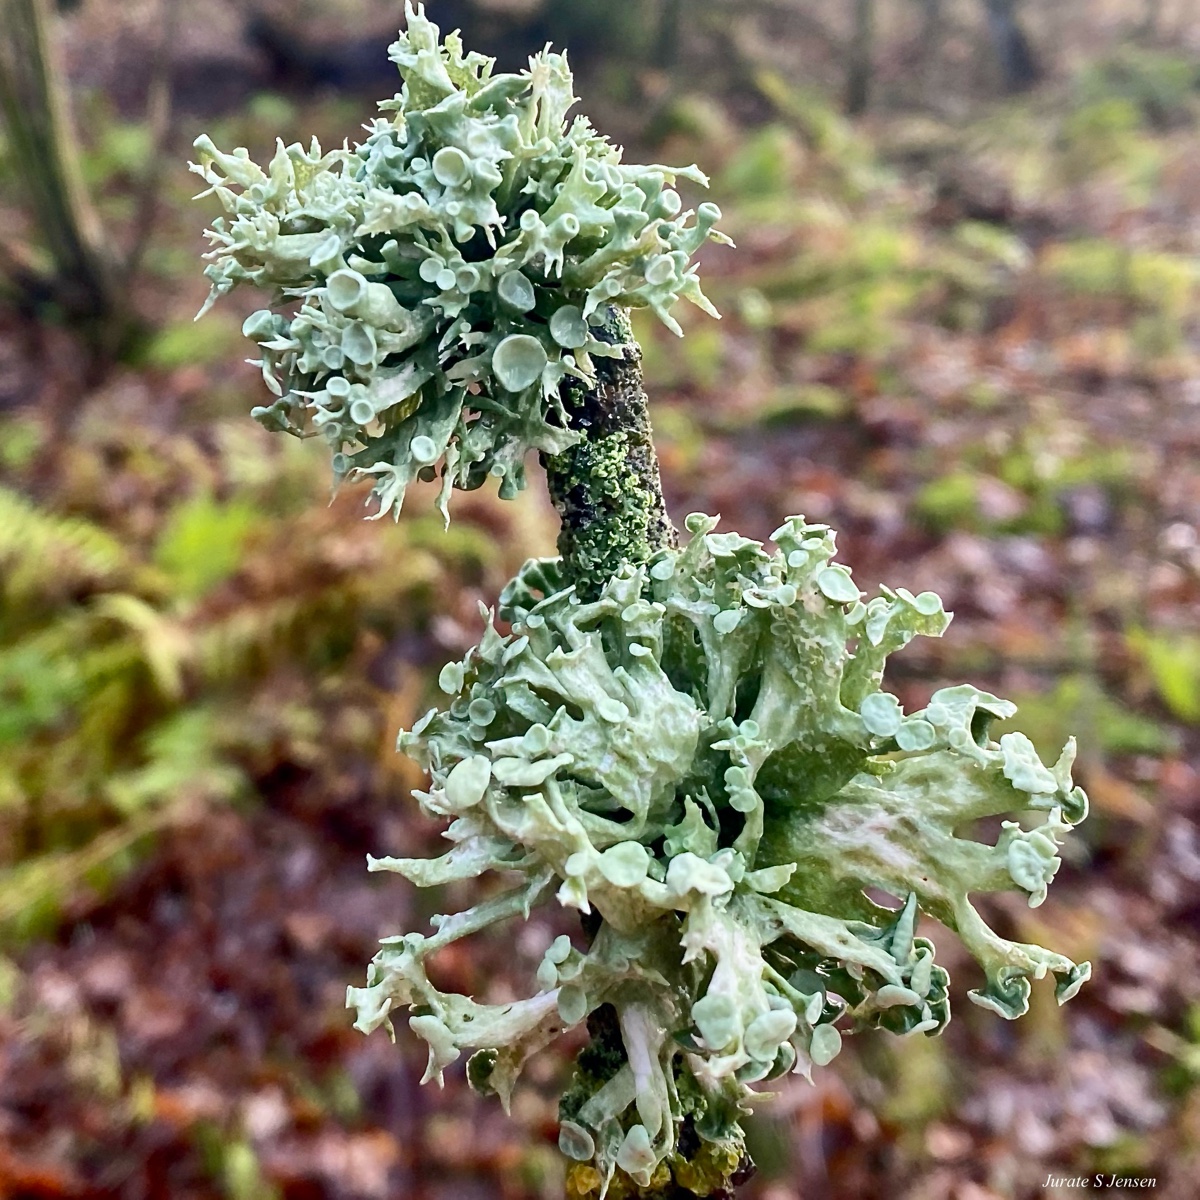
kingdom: Fungi
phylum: Ascomycota
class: Lecanoromycetes
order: Lecanorales
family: Ramalinaceae
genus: Ramalina
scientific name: Ramalina fastigiata
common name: tue-grenlav
